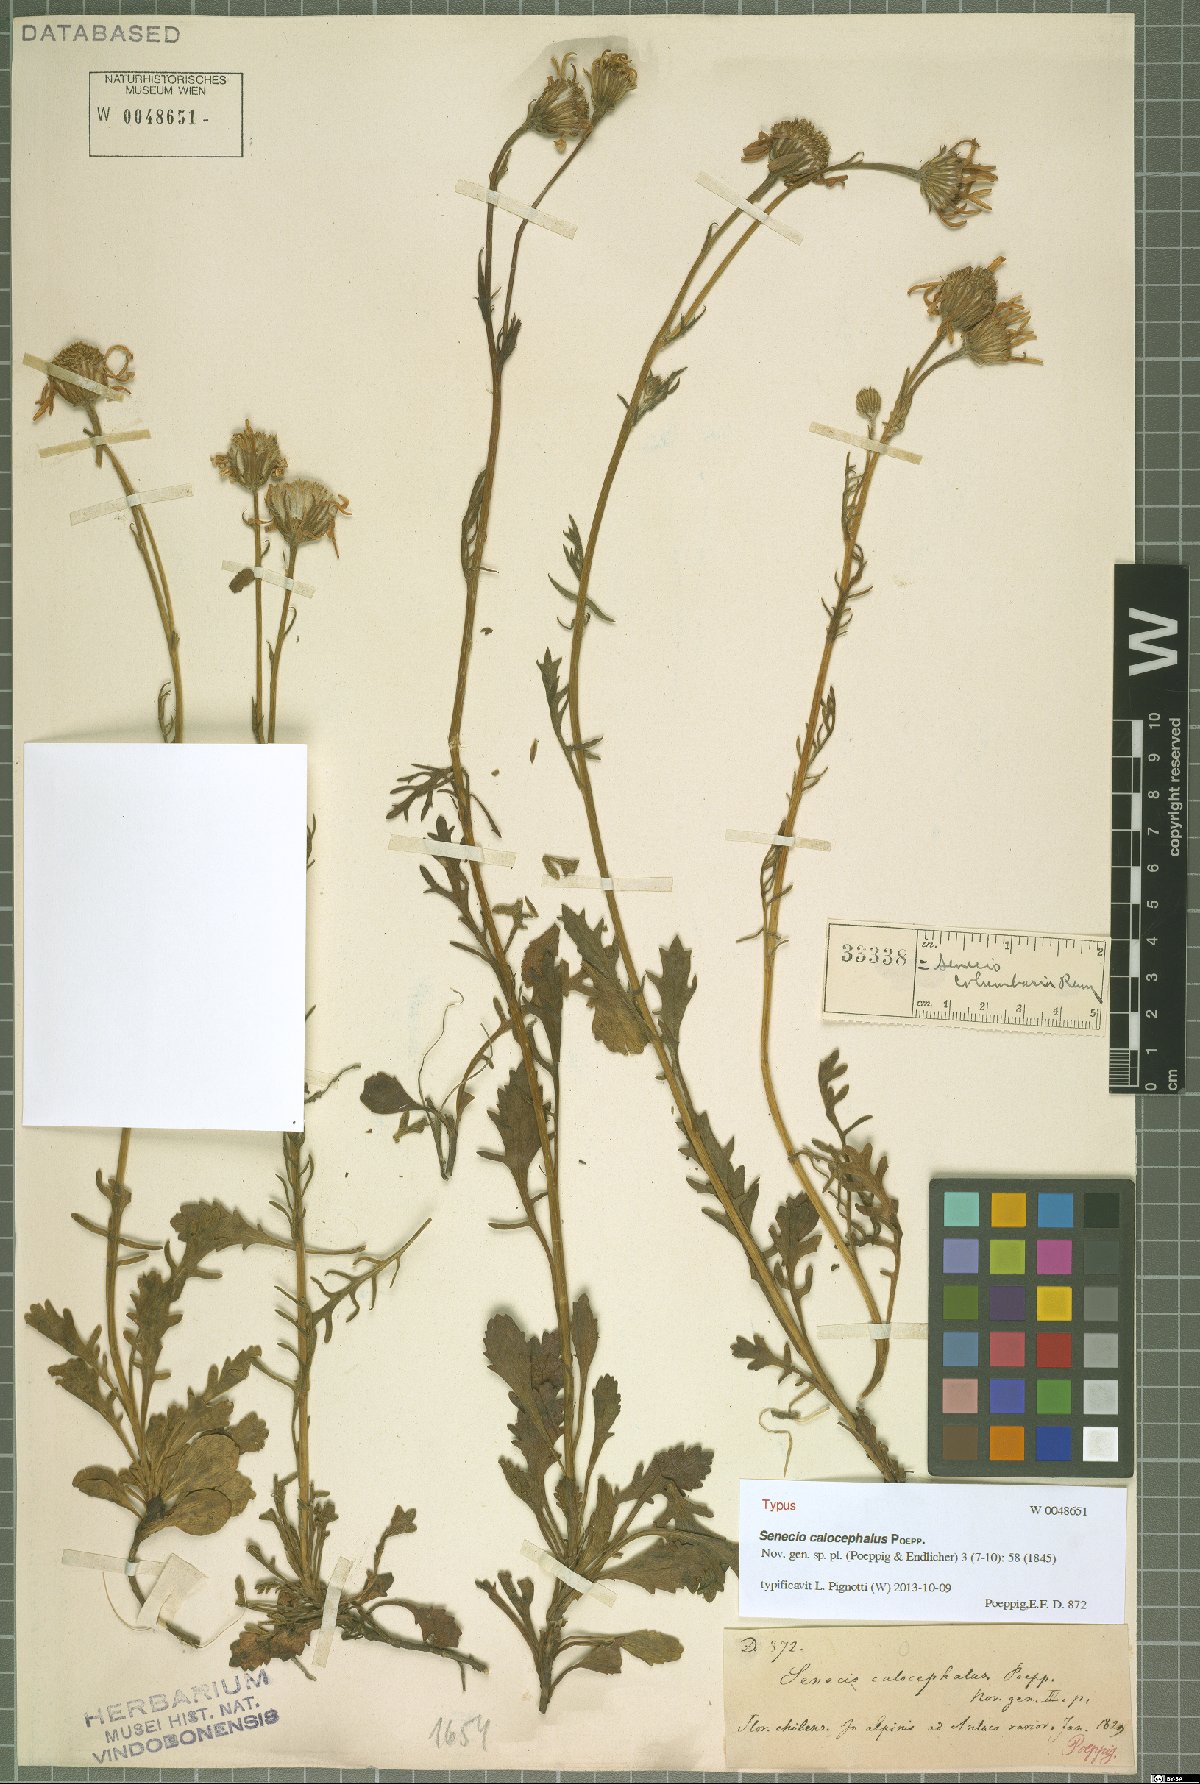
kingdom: Plantae
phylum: Tracheophyta
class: Magnoliopsida
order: Asterales
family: Asteraceae
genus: Senecio
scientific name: Senecio calocephalus
